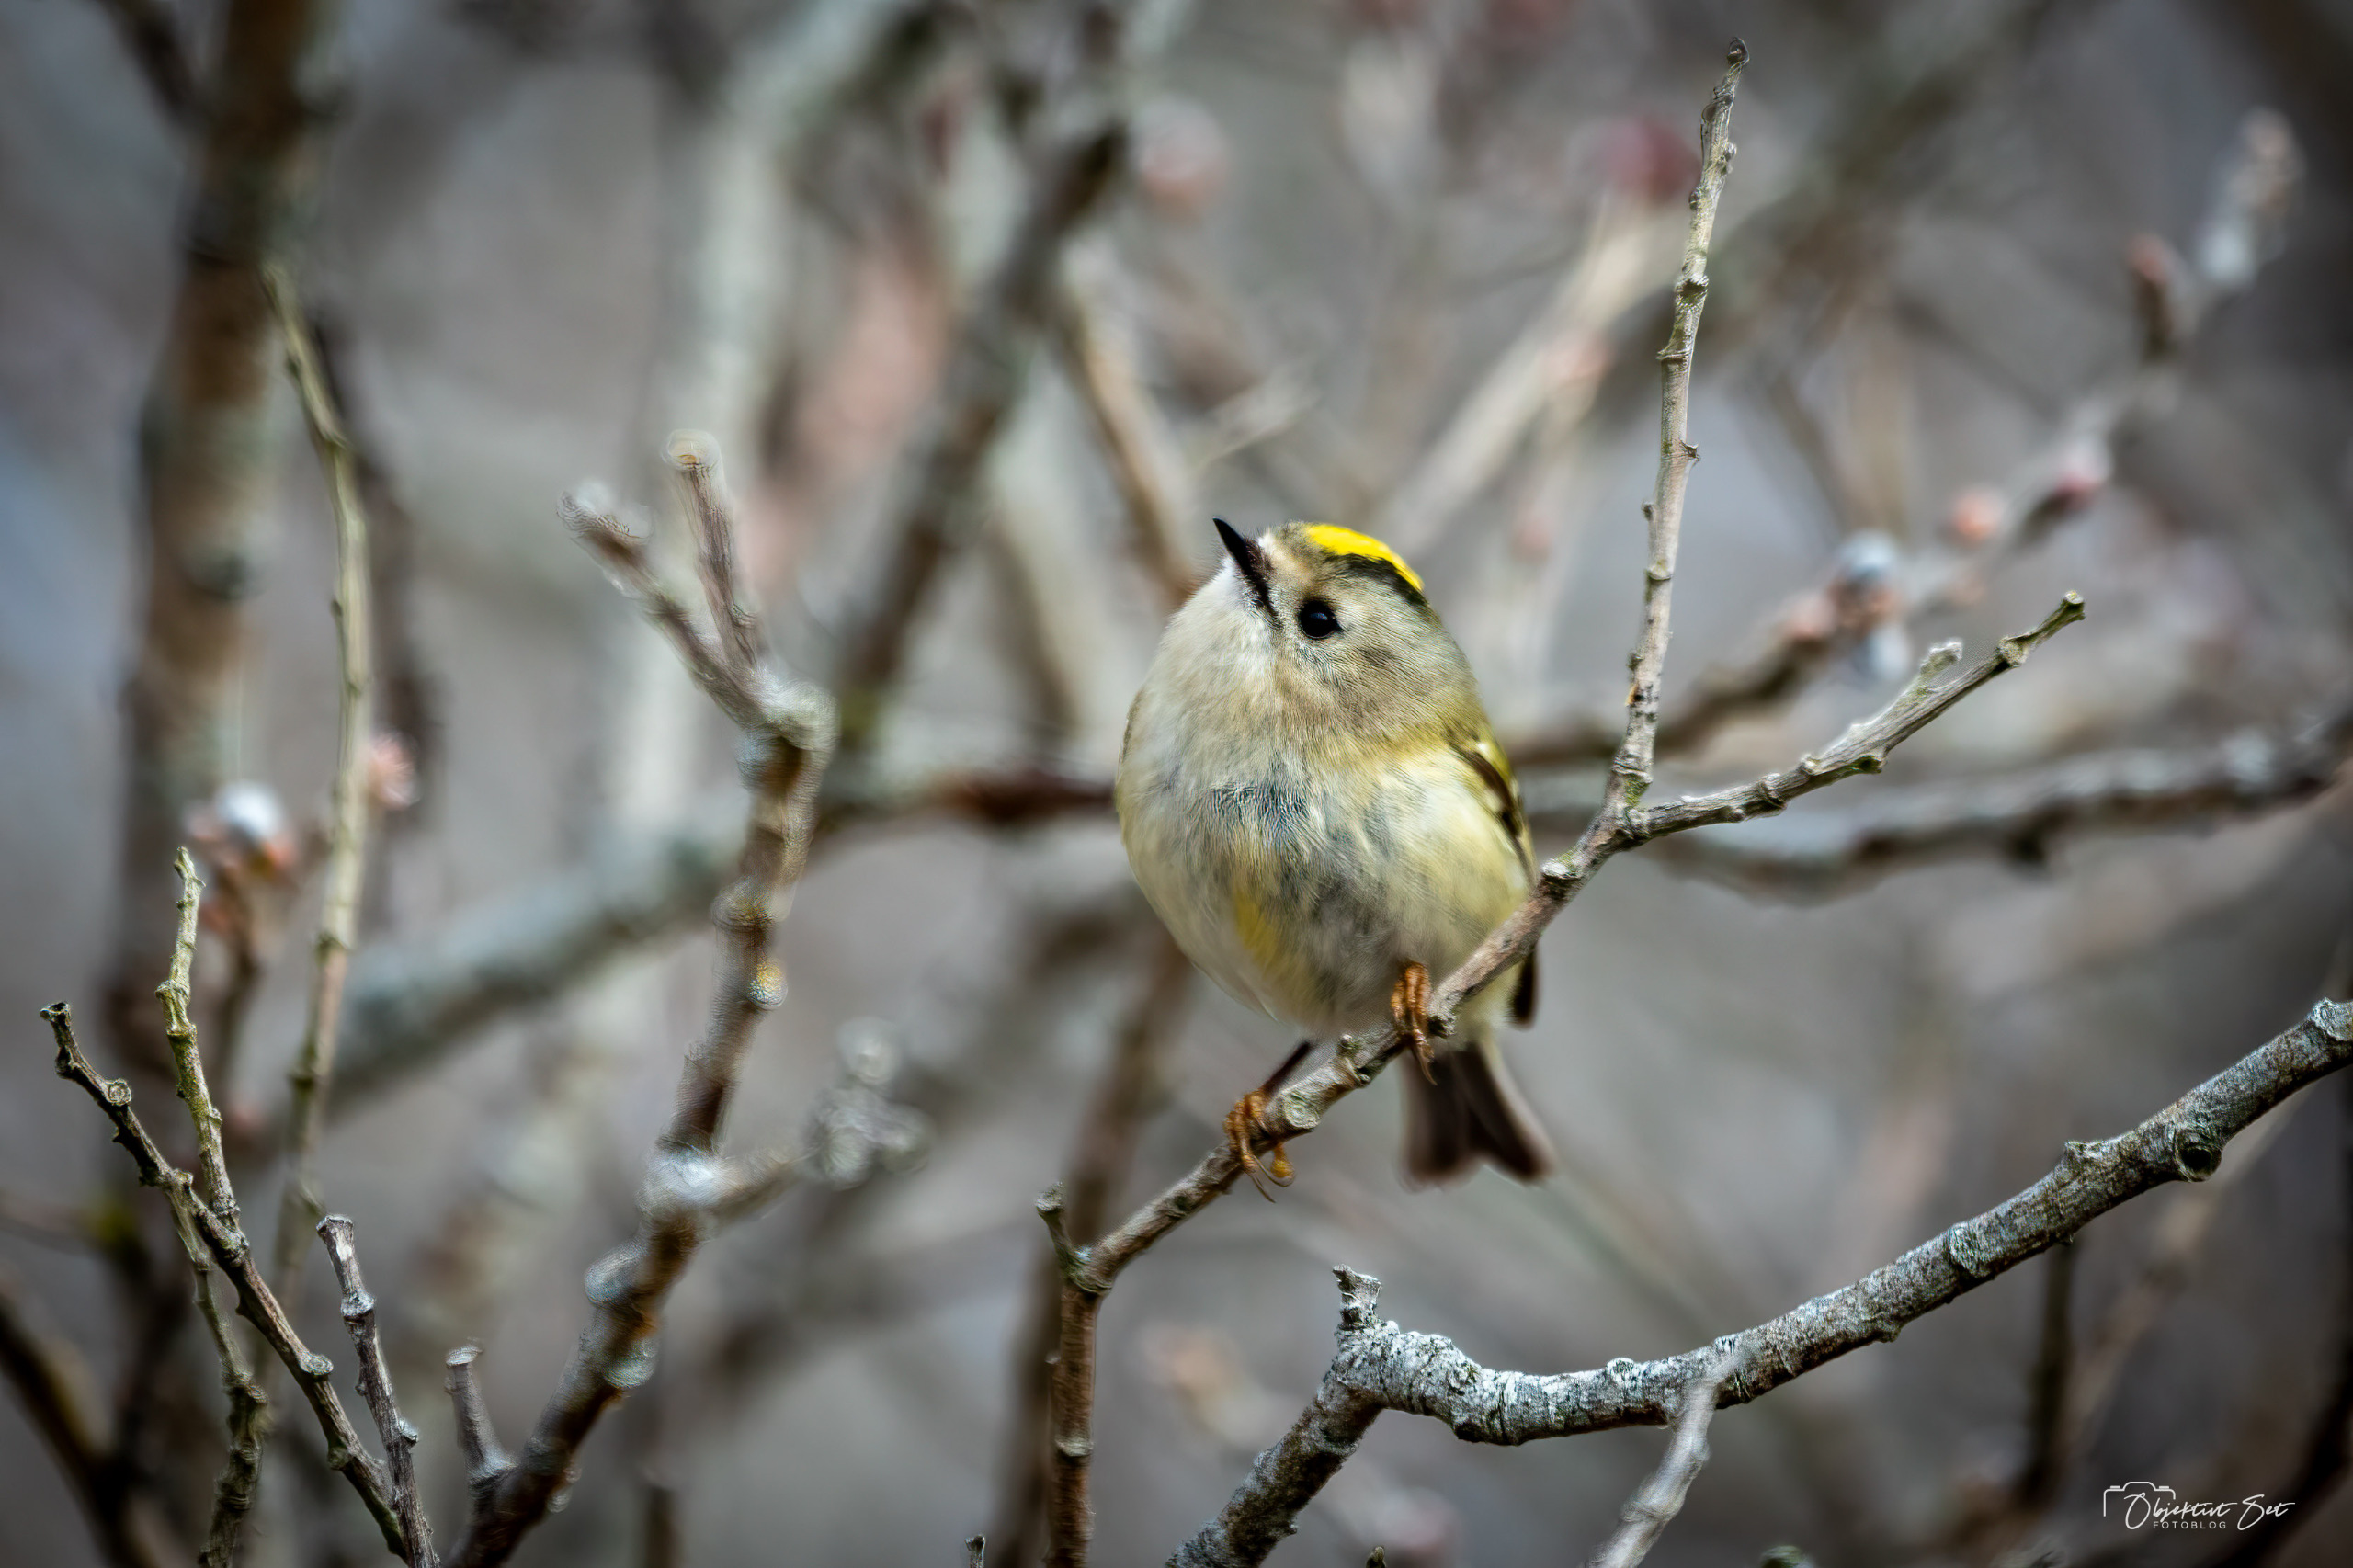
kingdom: Animalia
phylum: Chordata
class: Aves
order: Passeriformes
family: Regulidae
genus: Regulus
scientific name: Regulus regulus
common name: Fuglekonge
